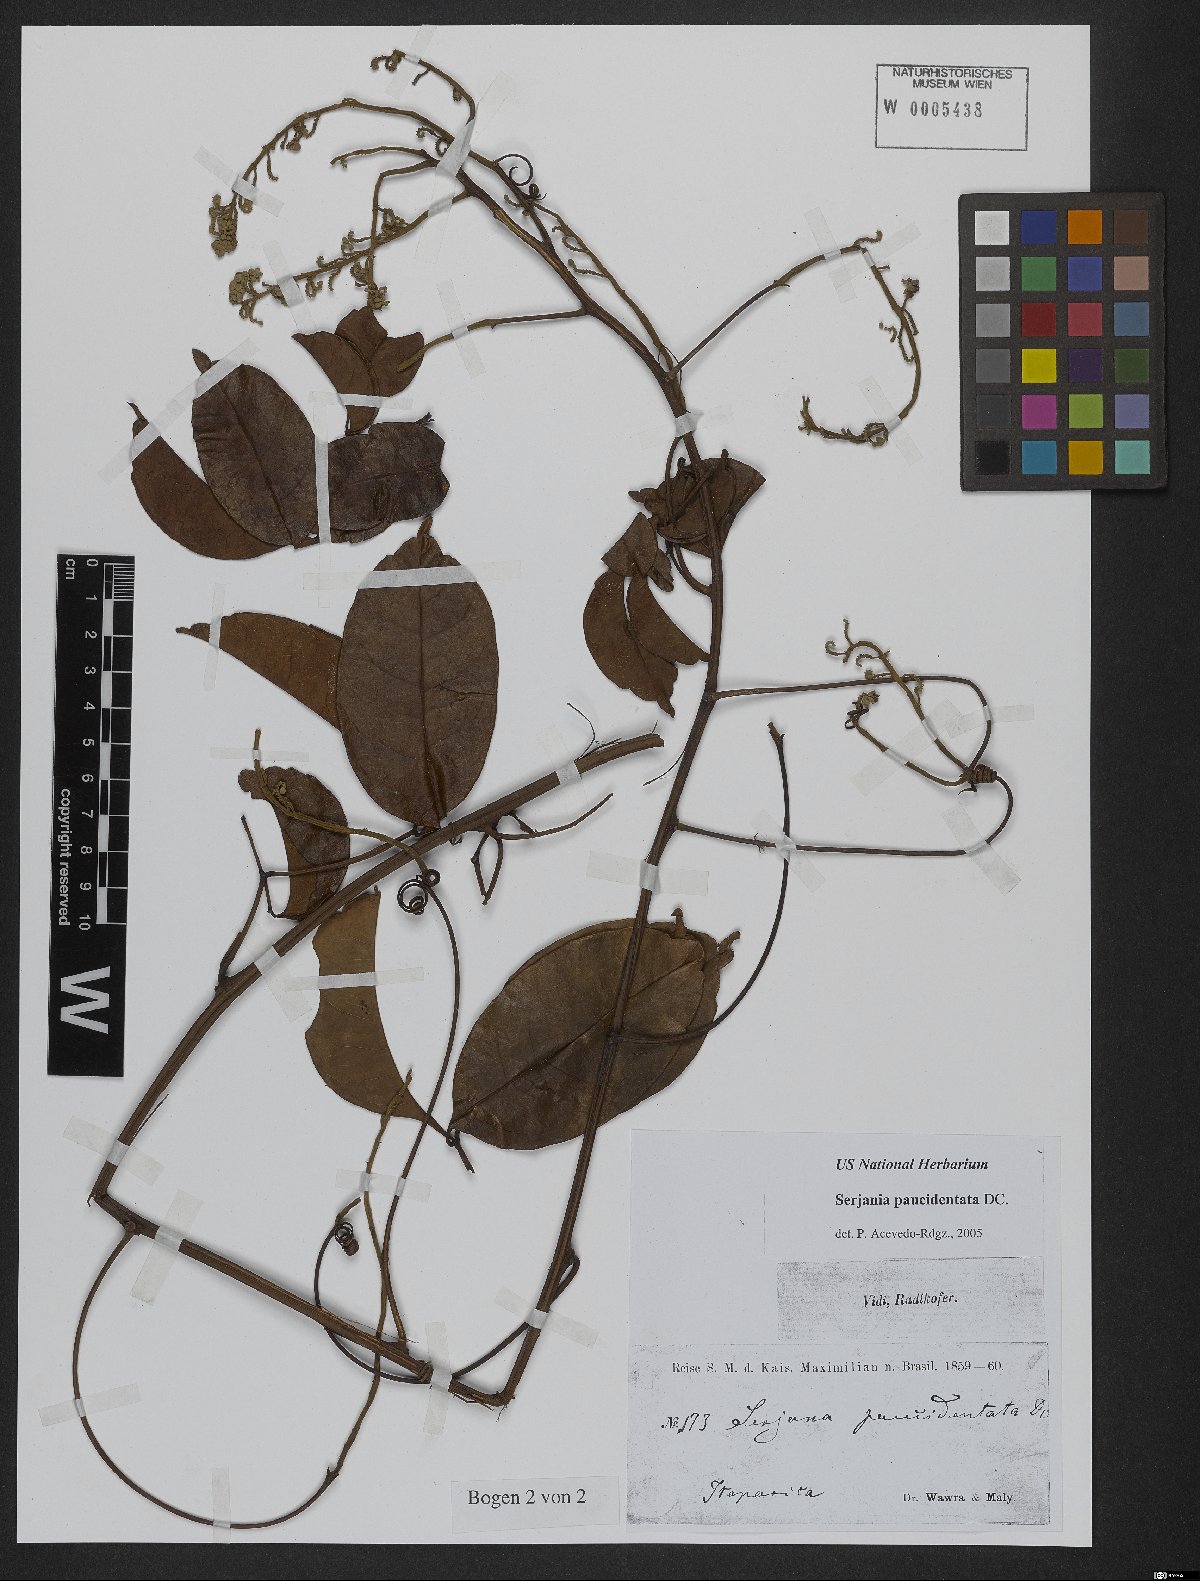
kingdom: Plantae
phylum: Tracheophyta
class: Magnoliopsida
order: Sapindales
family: Sapindaceae
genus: Serjania
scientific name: Serjania paucidentata
